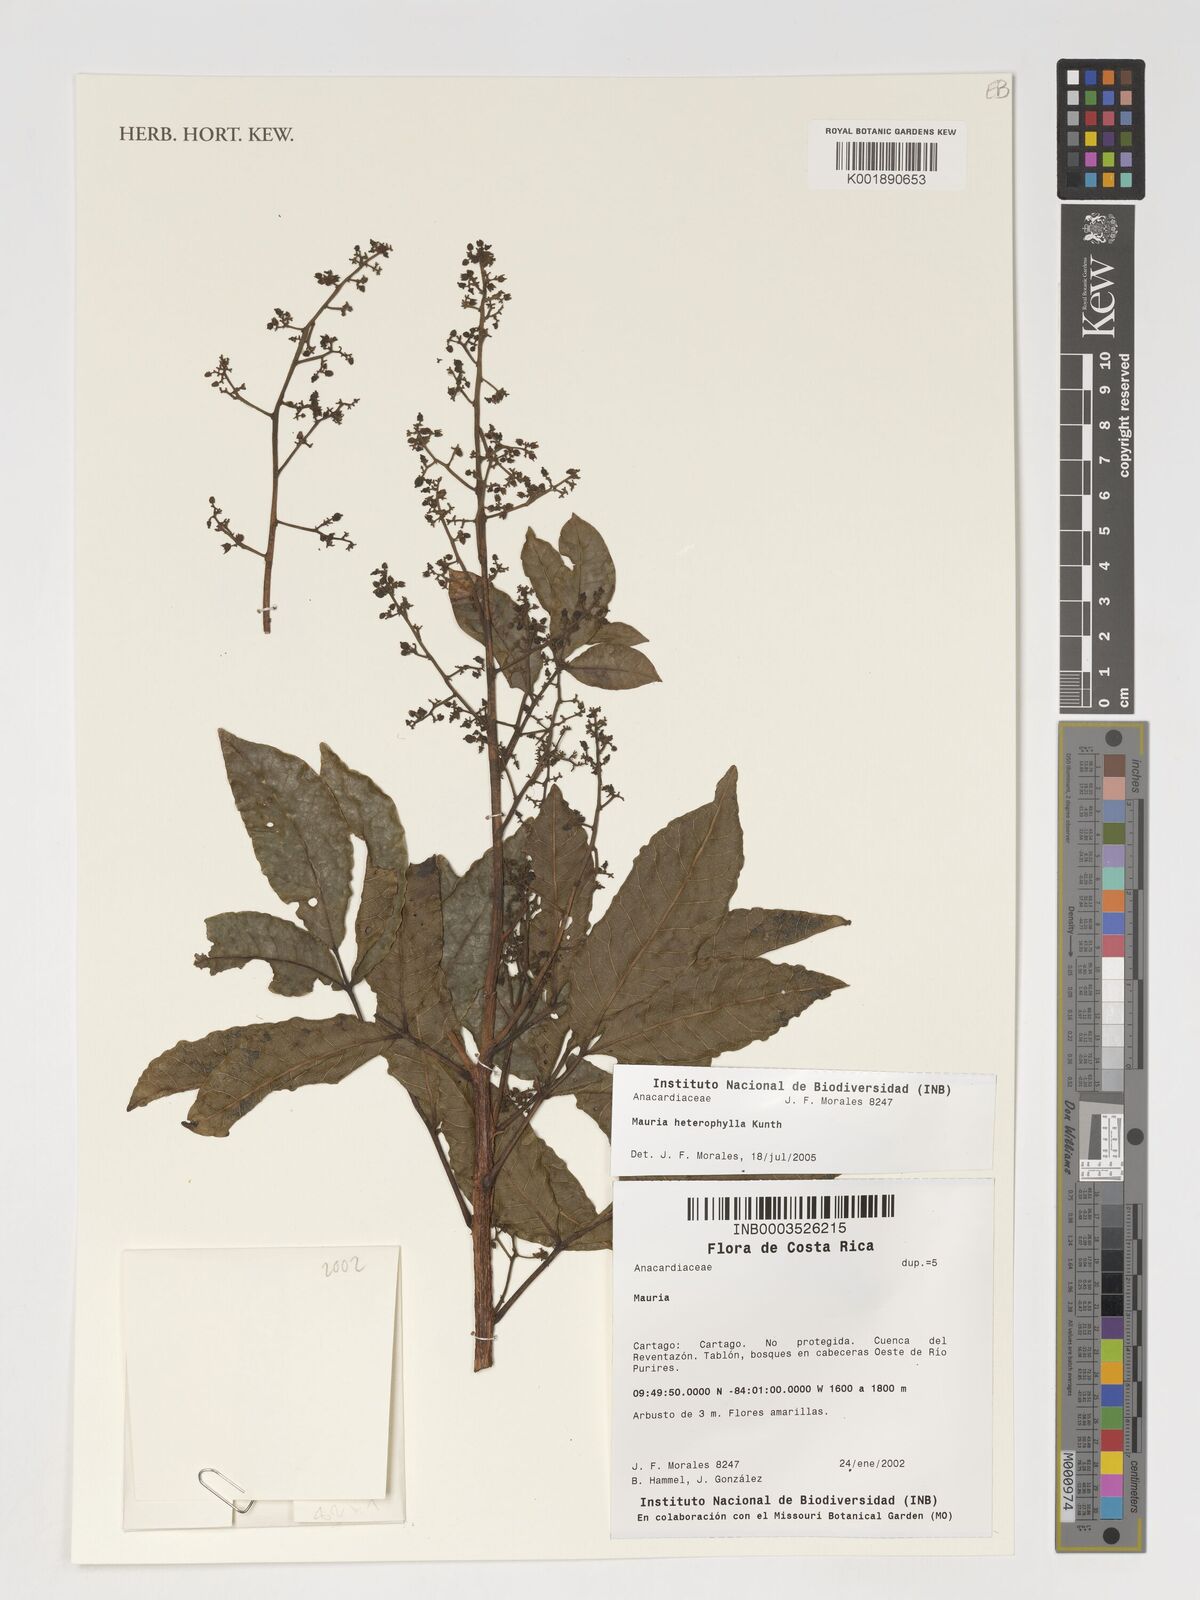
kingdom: Plantae
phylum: Tracheophyta
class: Magnoliopsida
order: Sapindales
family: Anacardiaceae
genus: Mauria
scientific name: Mauria heterophylla
